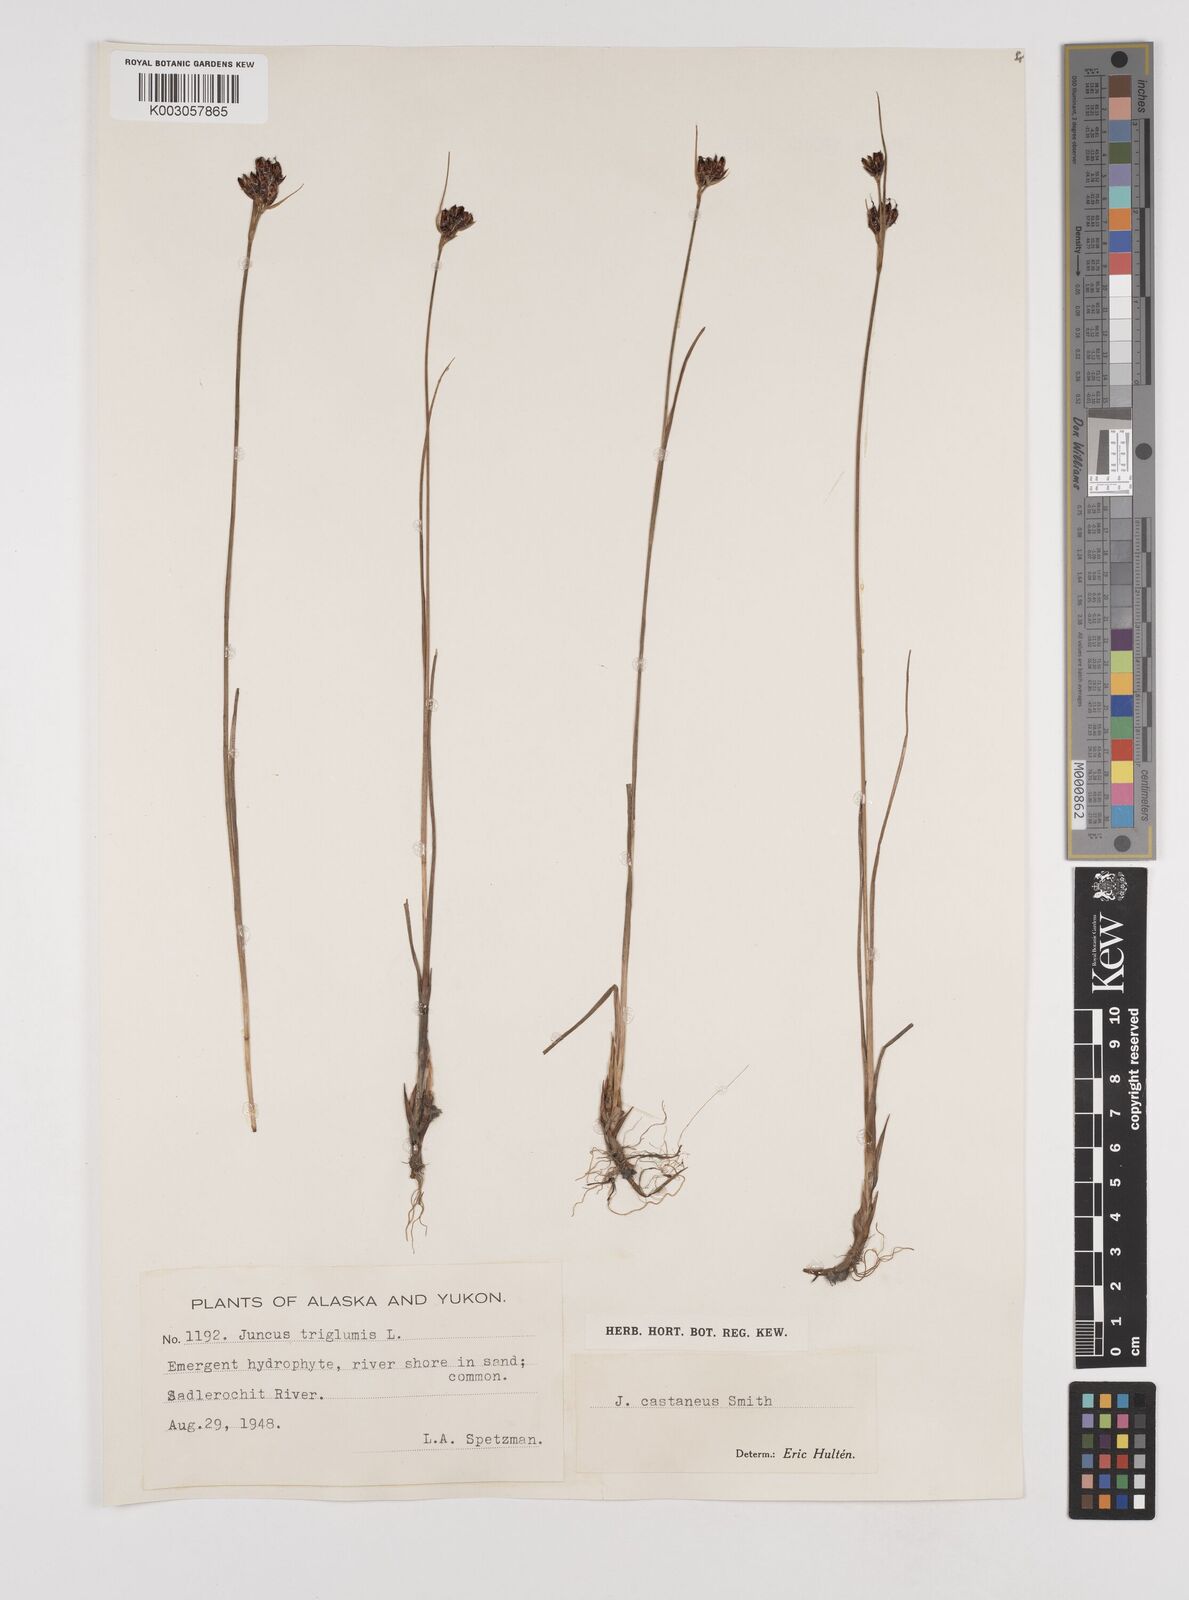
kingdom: Plantae
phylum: Tracheophyta
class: Liliopsida
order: Poales
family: Juncaceae
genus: Juncus
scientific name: Juncus castaneus
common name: Chestnut rush
